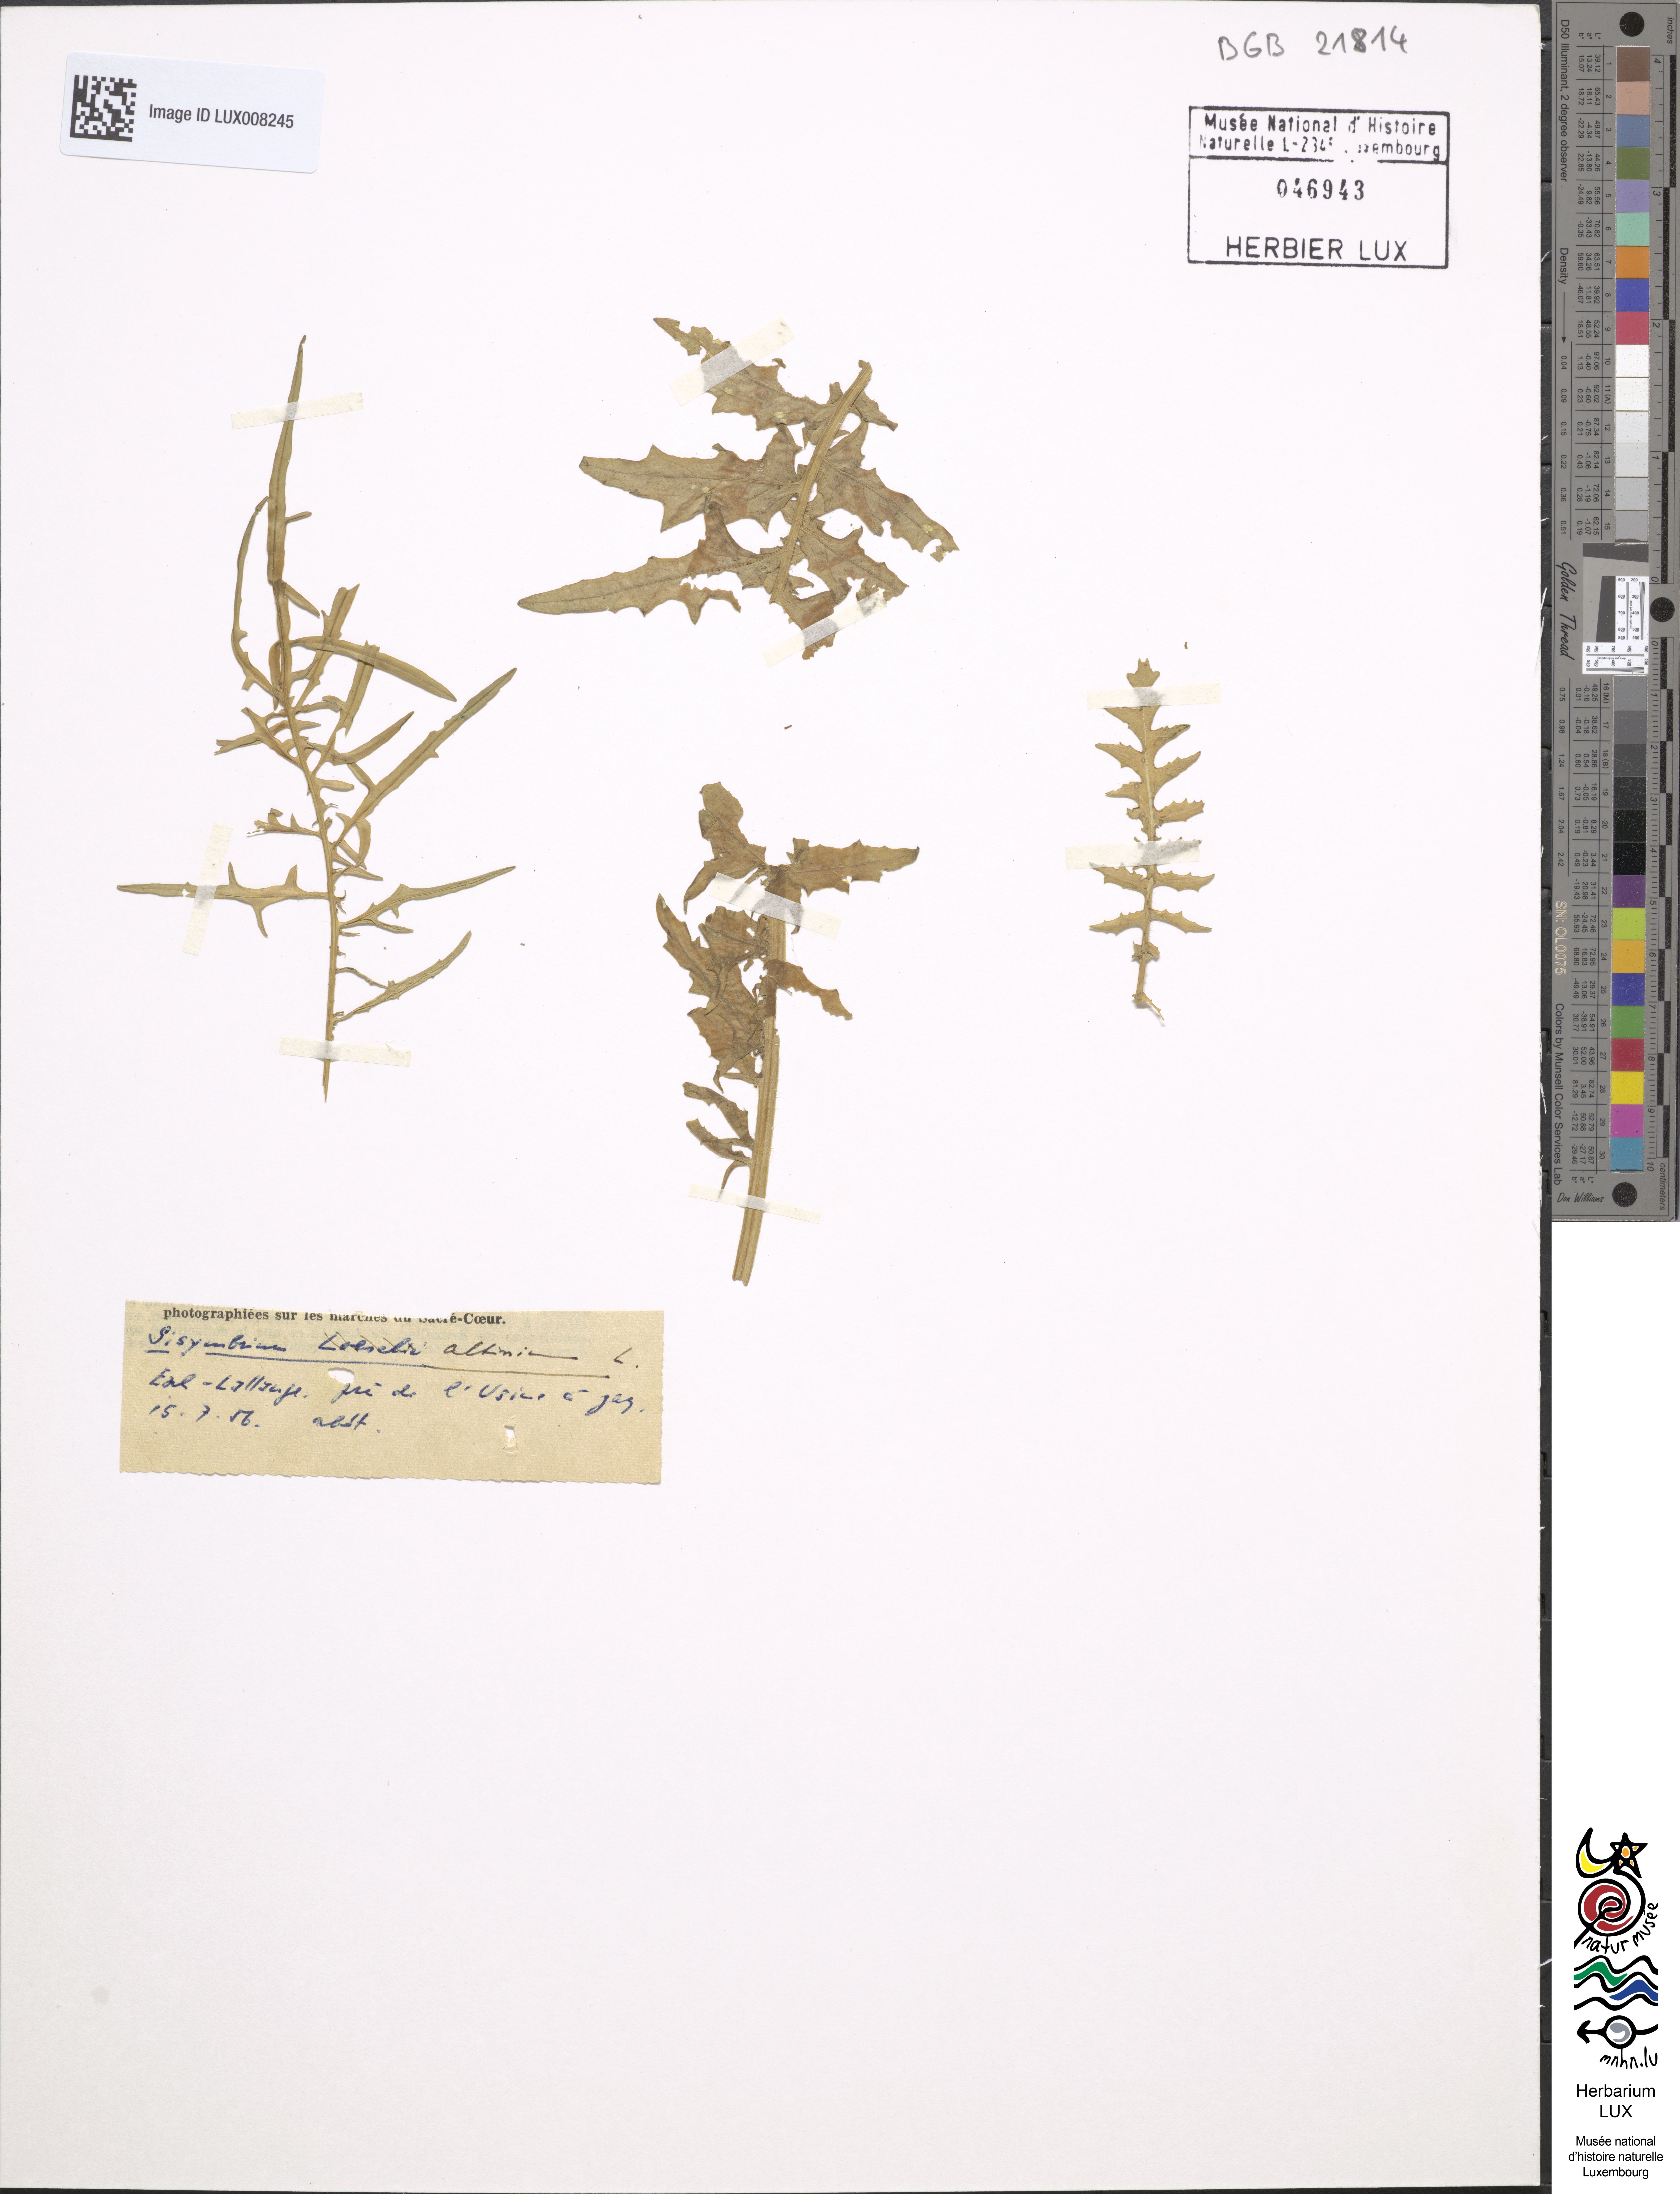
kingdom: Plantae
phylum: Tracheophyta
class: Magnoliopsida
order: Brassicales
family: Brassicaceae
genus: Sisymbrium
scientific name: Sisymbrium altissimum
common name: Tall rocket
